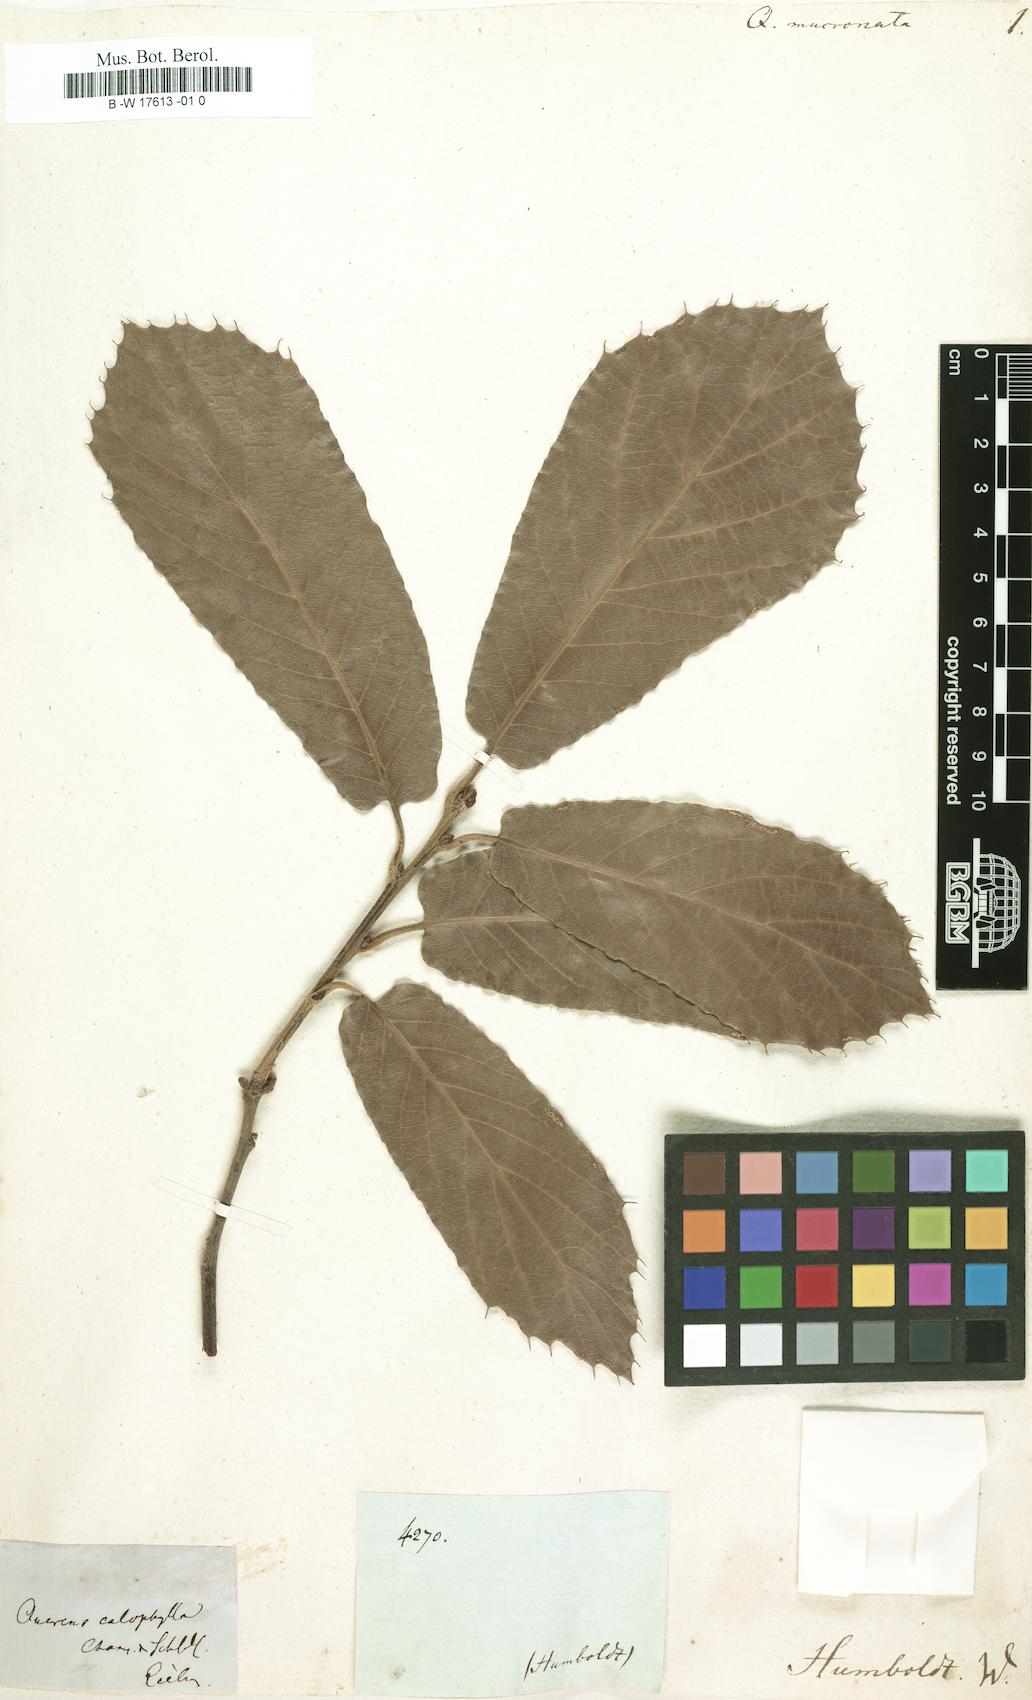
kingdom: Plantae
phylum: Tracheophyta
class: Magnoliopsida
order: Fagales
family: Fagaceae
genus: Quercus
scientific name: Quercus castanea
